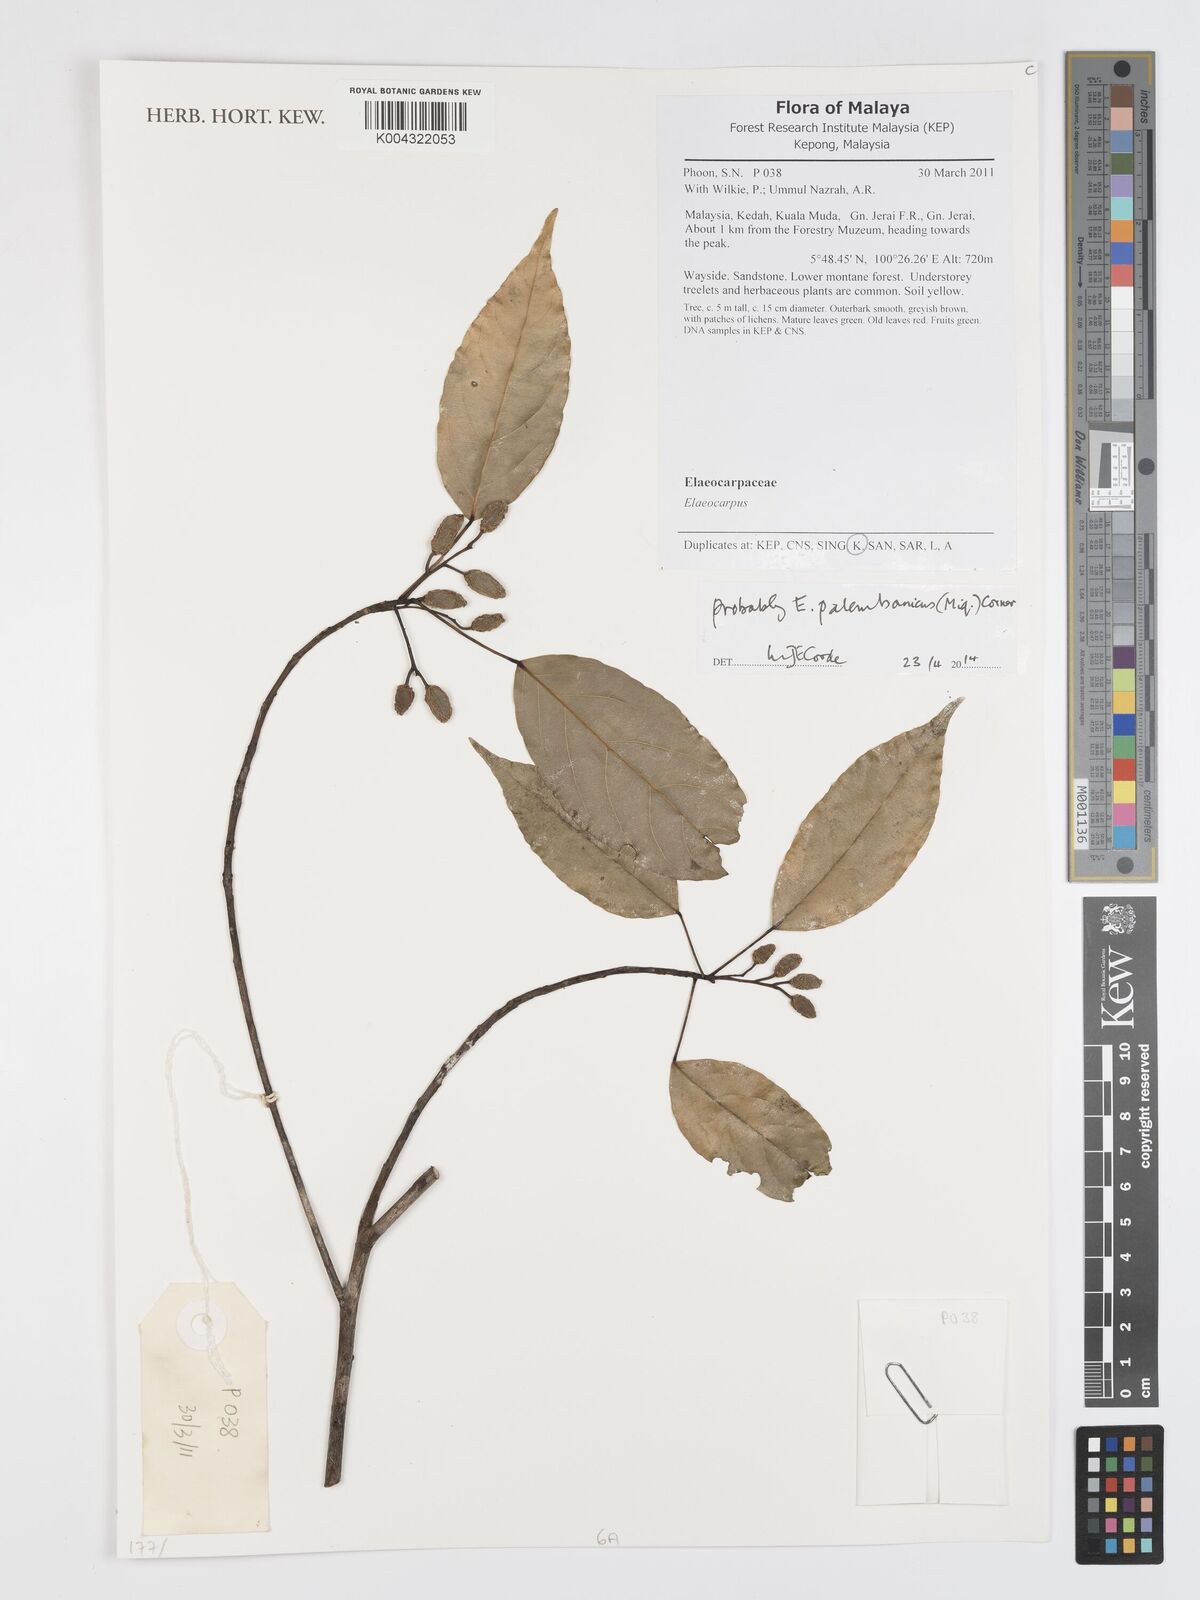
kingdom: Plantae
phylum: Tracheophyta
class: Magnoliopsida
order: Oxalidales
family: Elaeocarpaceae
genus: Elaeocarpus
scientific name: Elaeocarpus palembanicus
